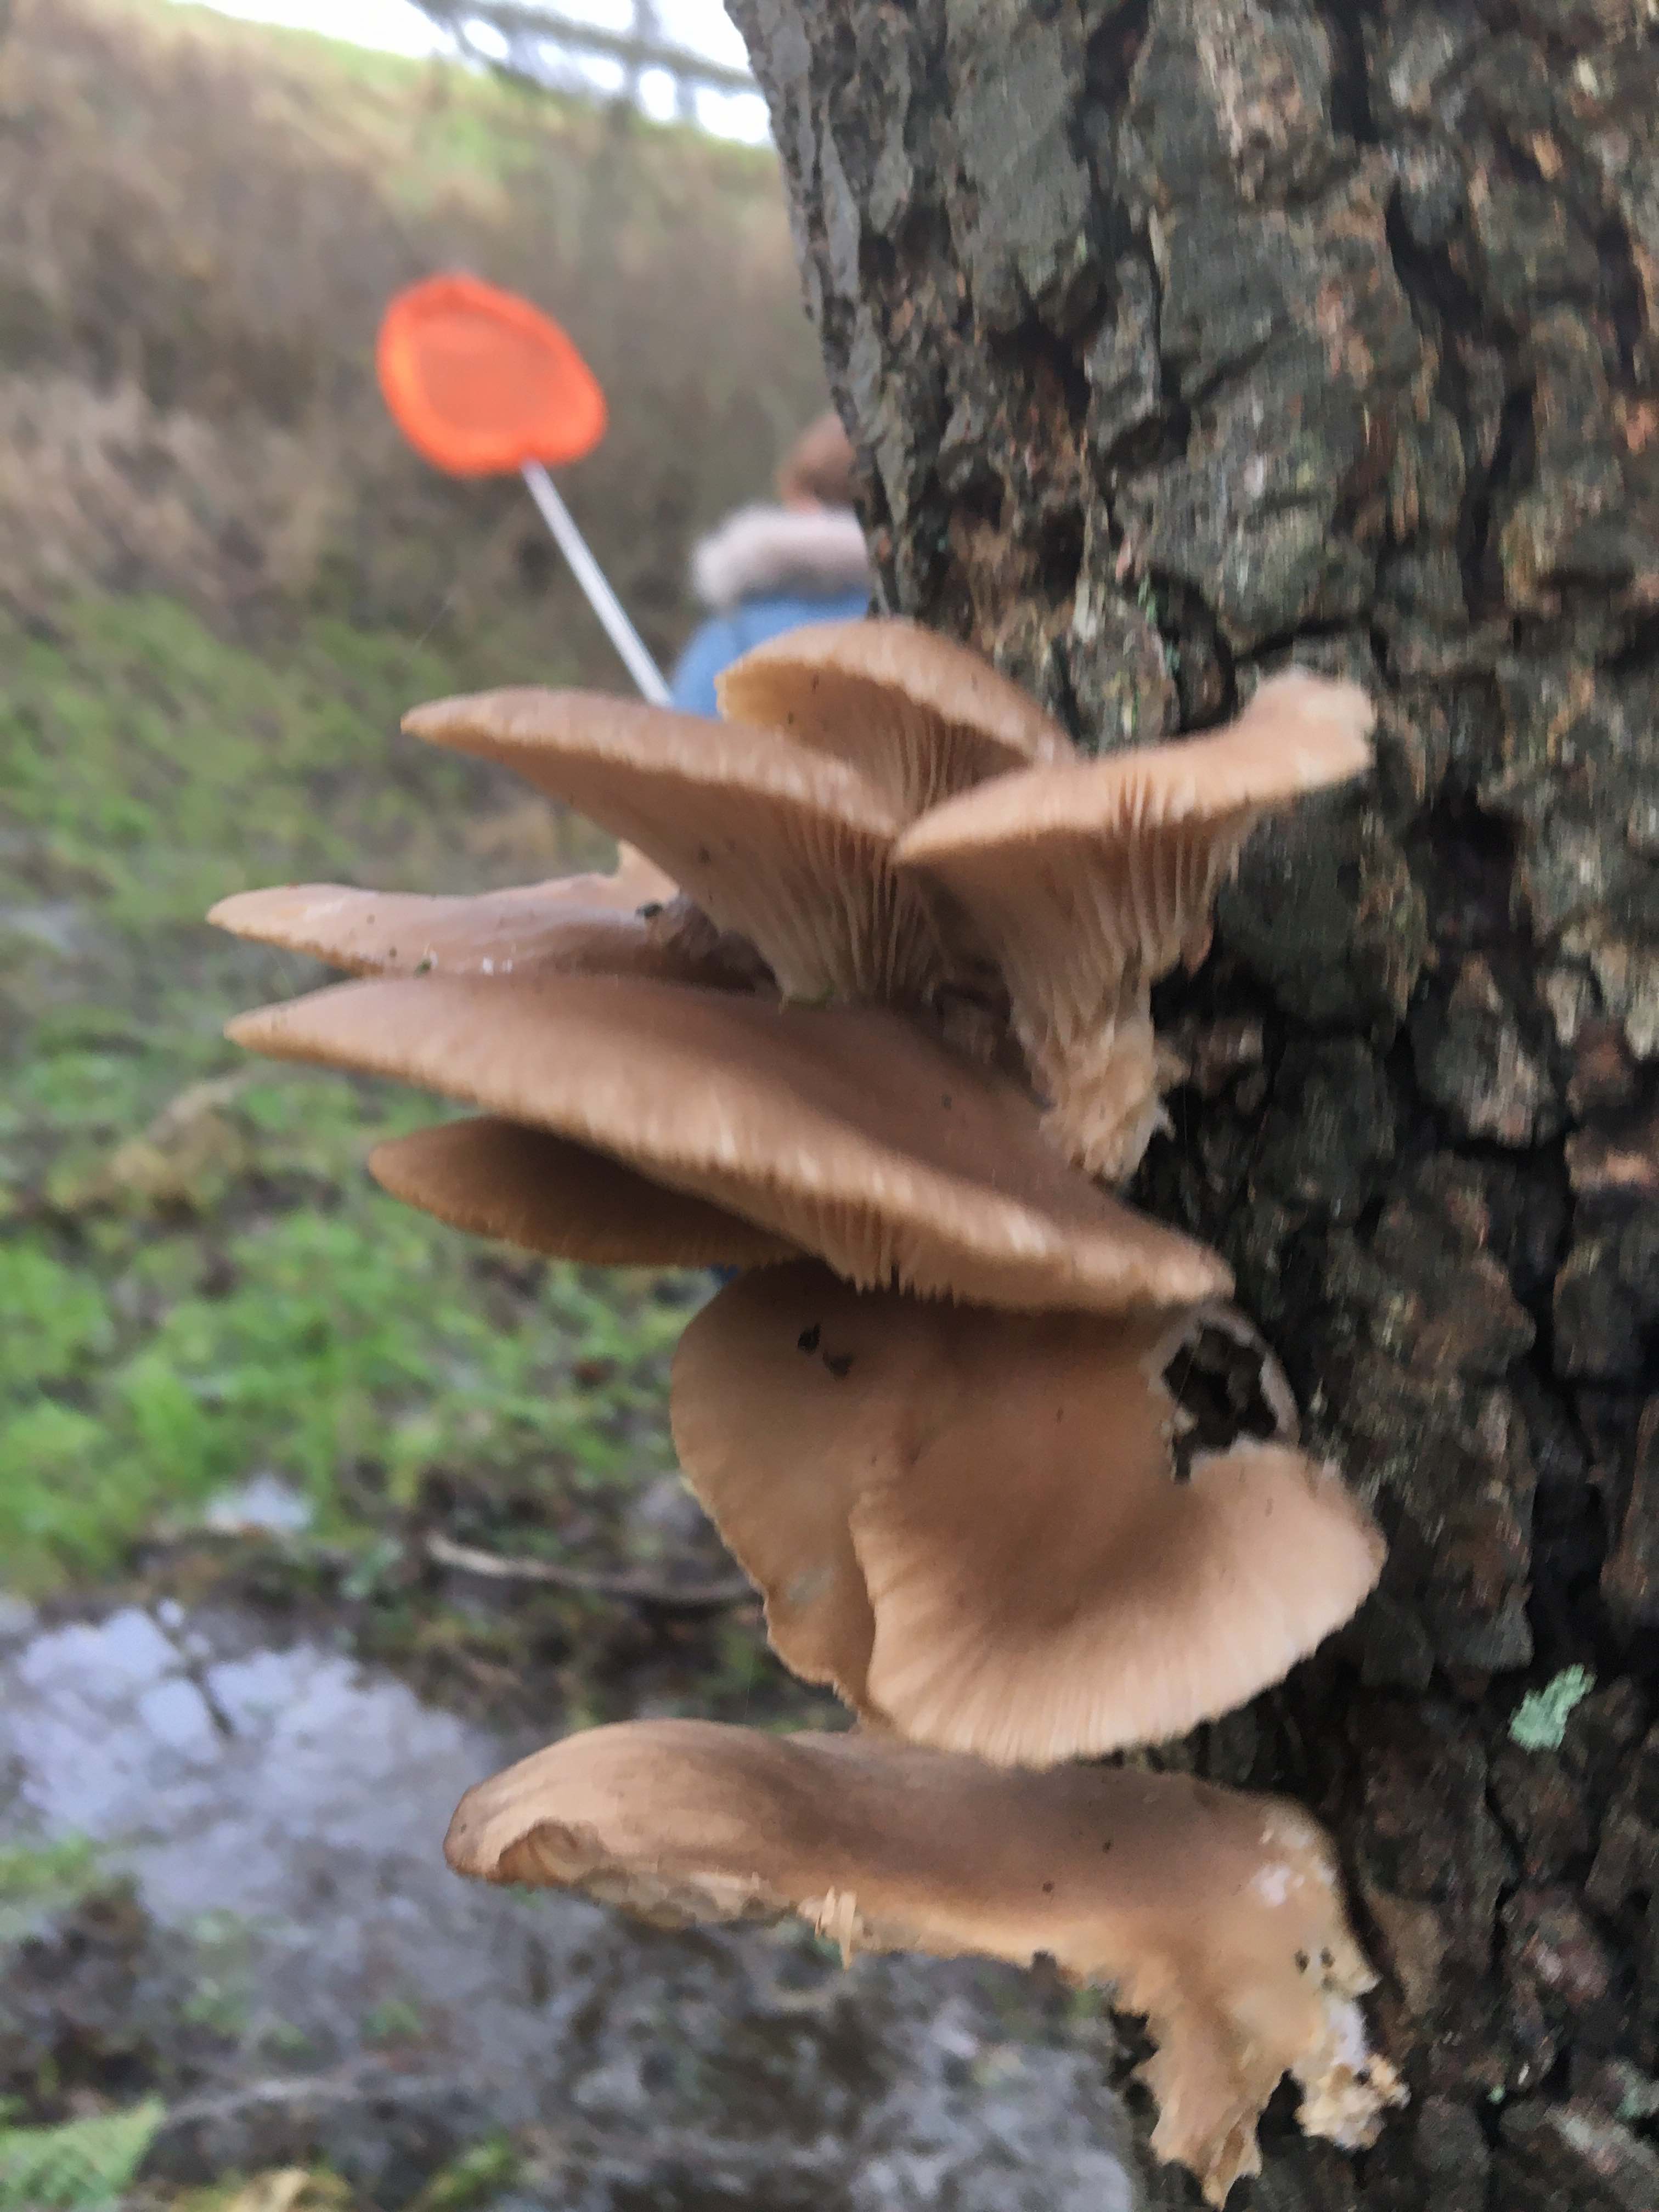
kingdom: Fungi
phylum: Basidiomycota
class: Agaricomycetes
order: Agaricales
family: Pleurotaceae
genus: Pleurotus
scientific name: Pleurotus ostreatus
